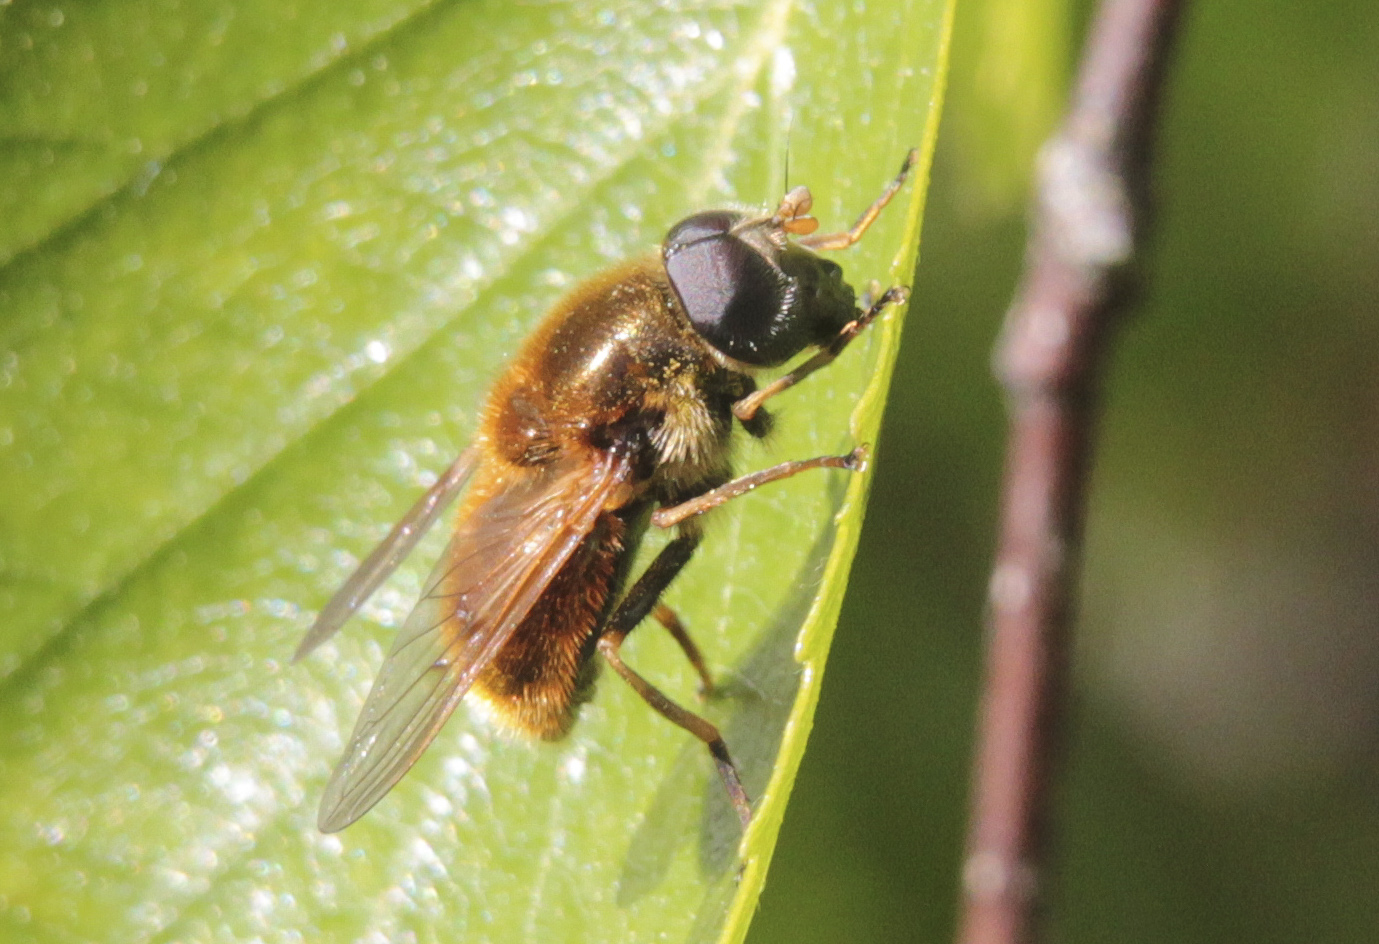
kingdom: Animalia
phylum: Arthropoda
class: Insecta
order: Diptera
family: Syrphidae
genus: Cheilosia
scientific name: Cheilosia chrysocoma
